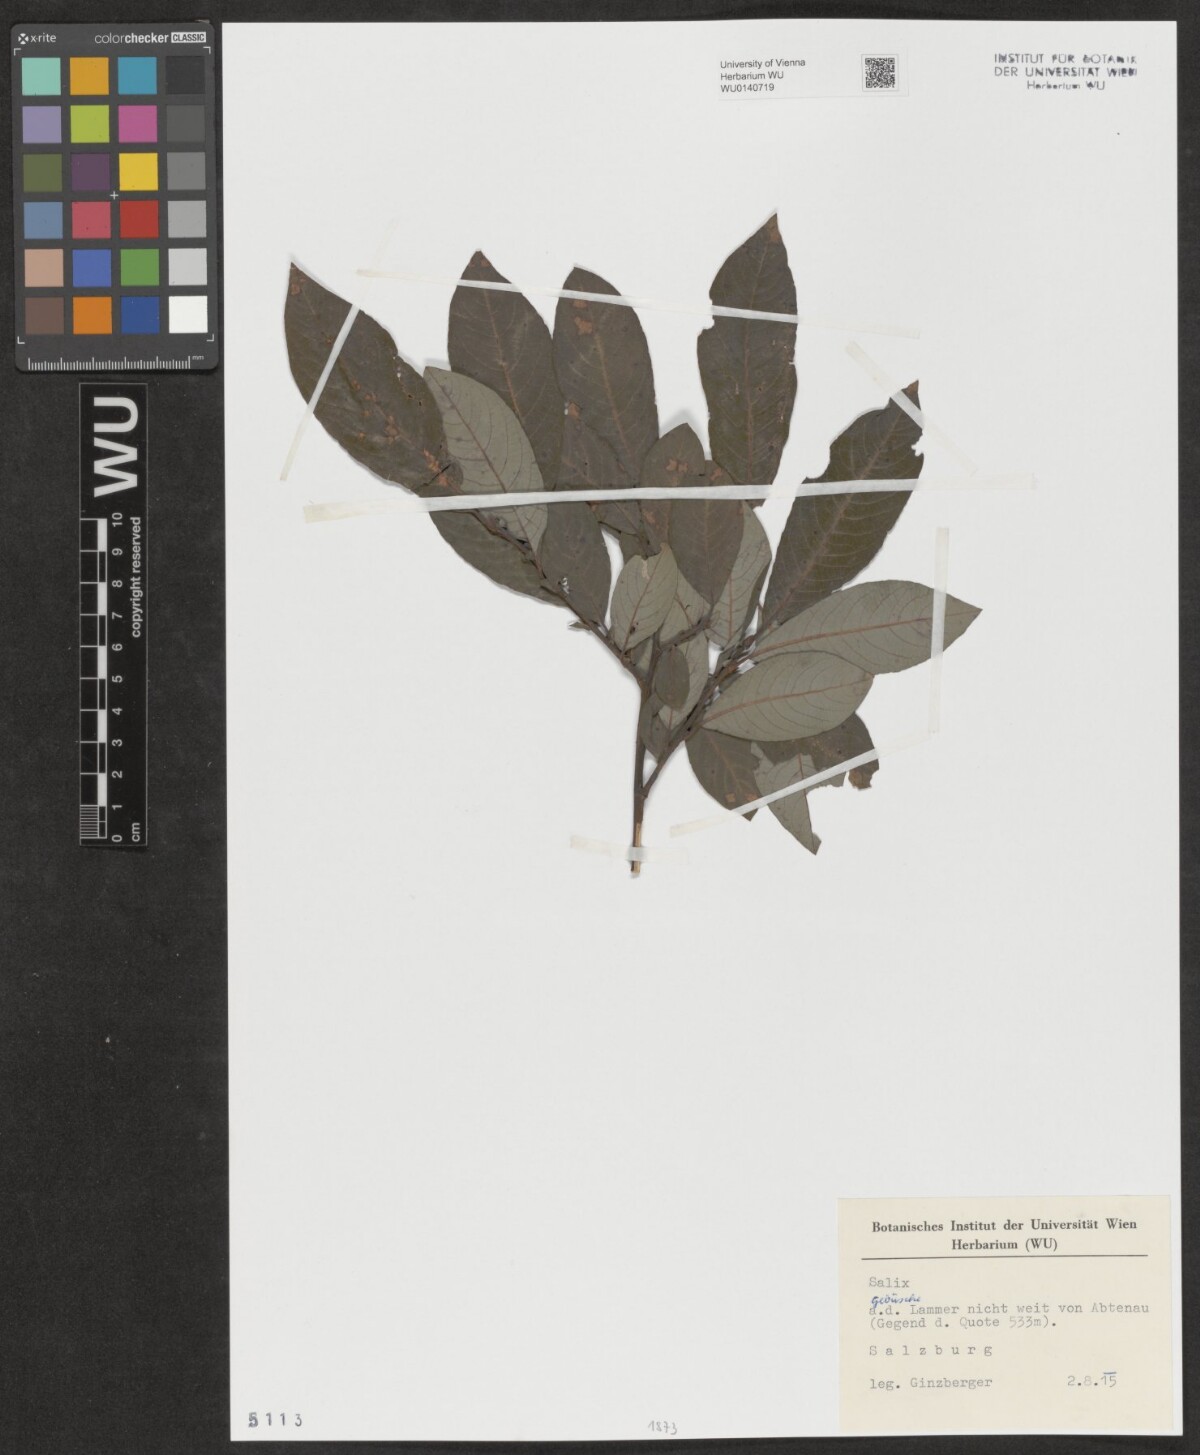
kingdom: Plantae
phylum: Tracheophyta
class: Magnoliopsida
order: Malpighiales
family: Salicaceae
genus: Salix
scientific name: Salix
